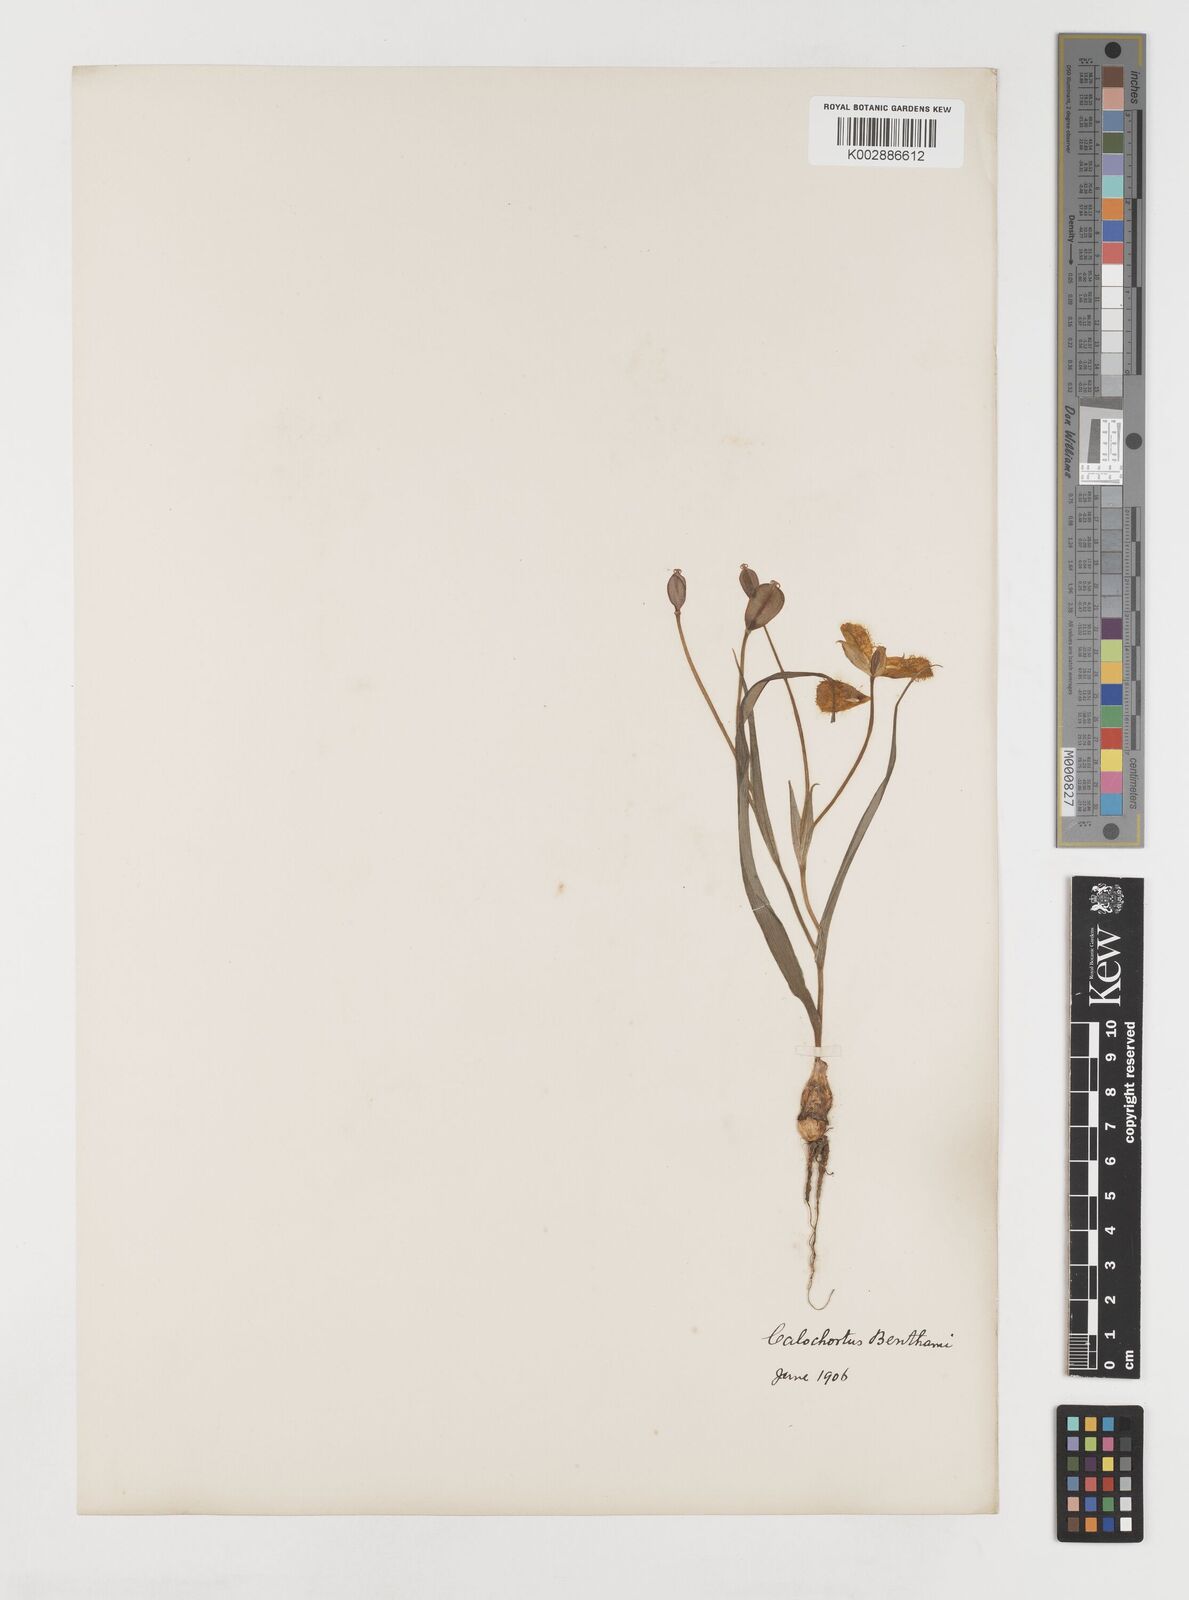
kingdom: Plantae
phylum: Tracheophyta
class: Liliopsida
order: Liliales
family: Liliaceae
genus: Calochortus
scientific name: Calochortus monophyllus
